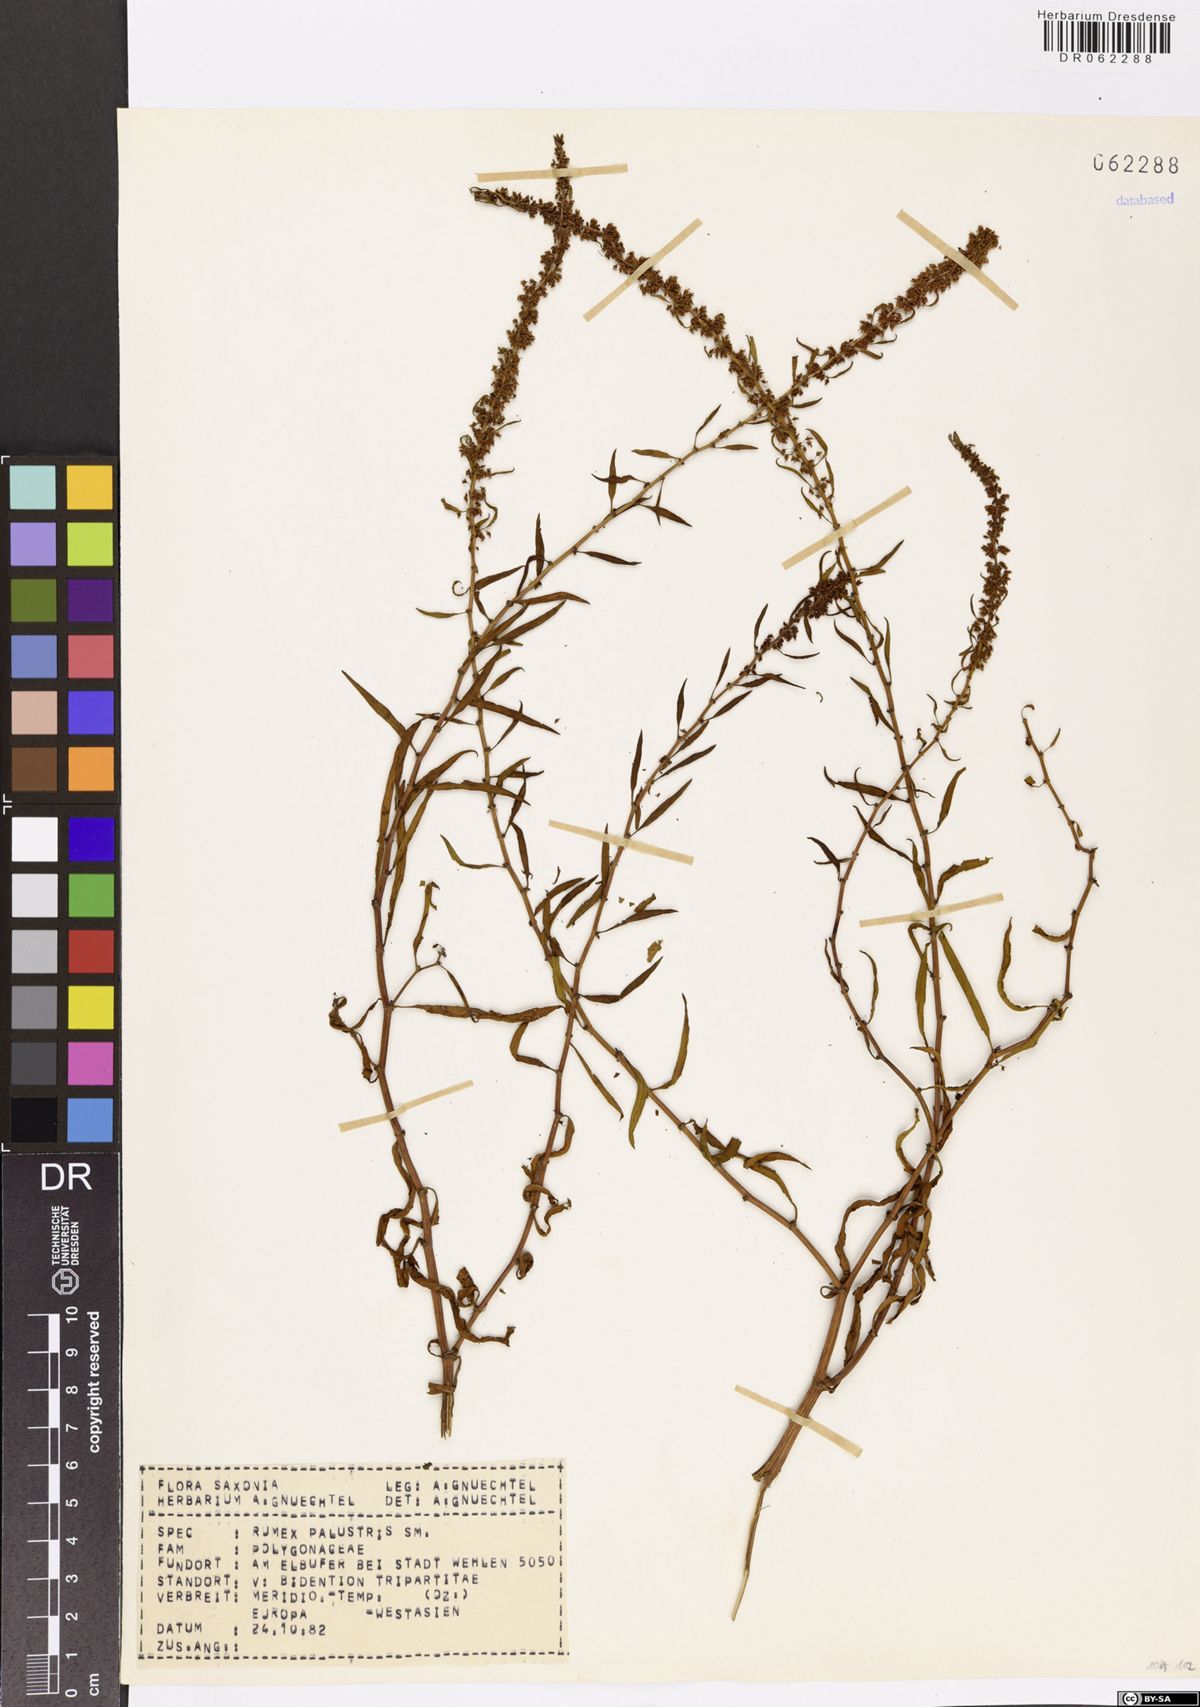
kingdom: Plantae
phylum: Tracheophyta
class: Magnoliopsida
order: Caryophyllales
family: Polygonaceae
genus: Rumex
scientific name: Rumex palustris
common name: Marsh dock
